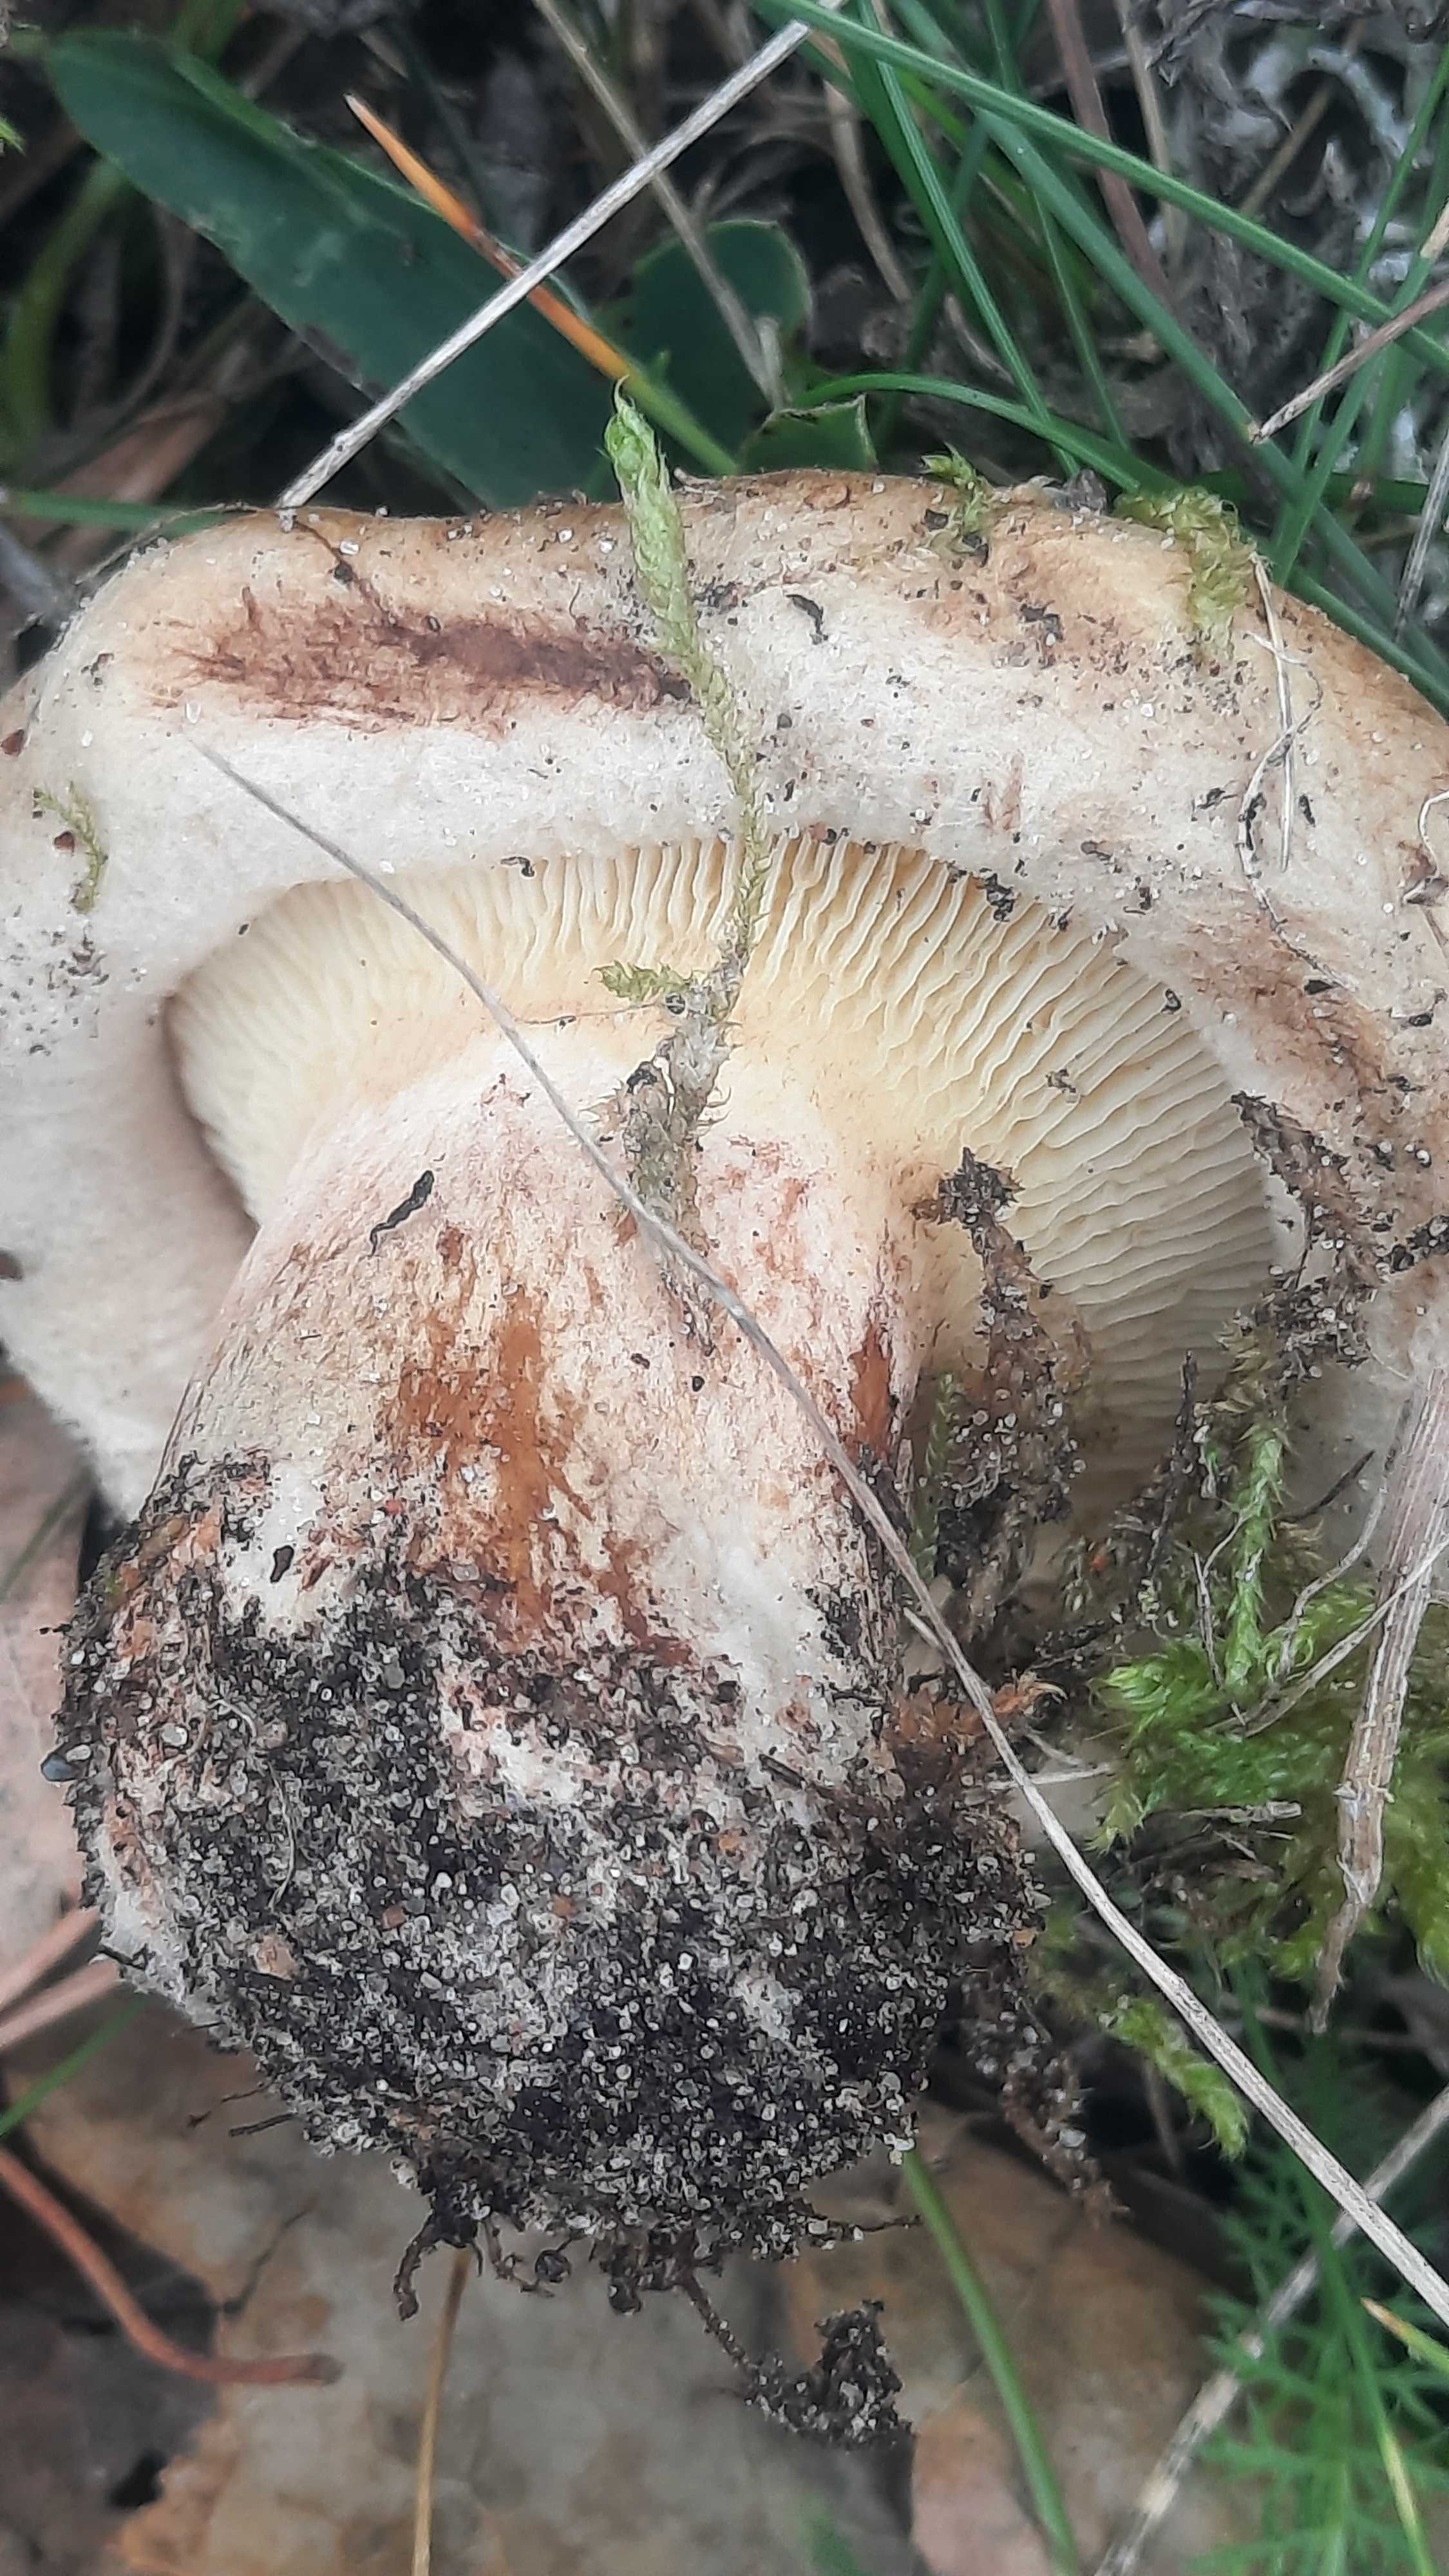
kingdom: Fungi
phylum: Basidiomycota
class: Agaricomycetes
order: Boletales
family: Paxillaceae
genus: Paxillus
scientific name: Paxillus
